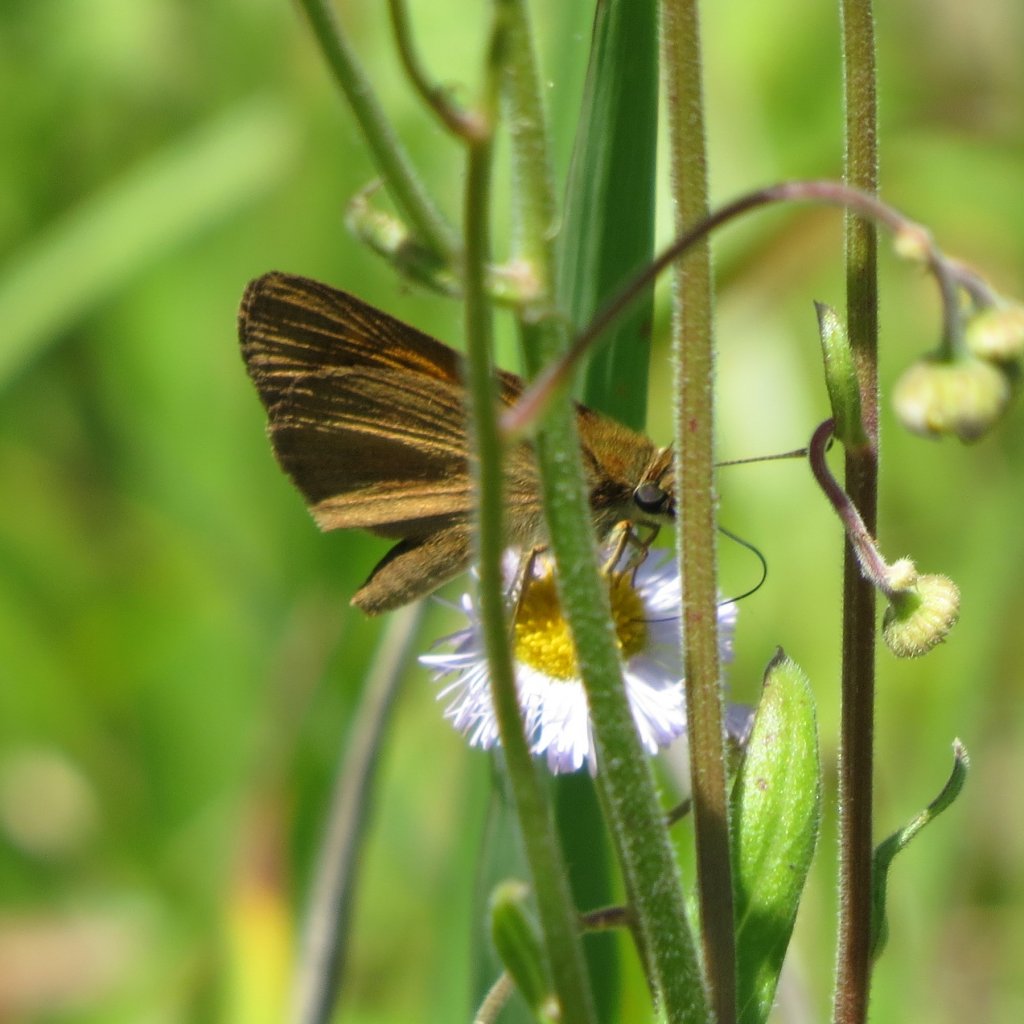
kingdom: Animalia
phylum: Arthropoda
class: Insecta
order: Lepidoptera
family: Hesperiidae
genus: Problema
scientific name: Problema byssus
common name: Byssus Skipper
